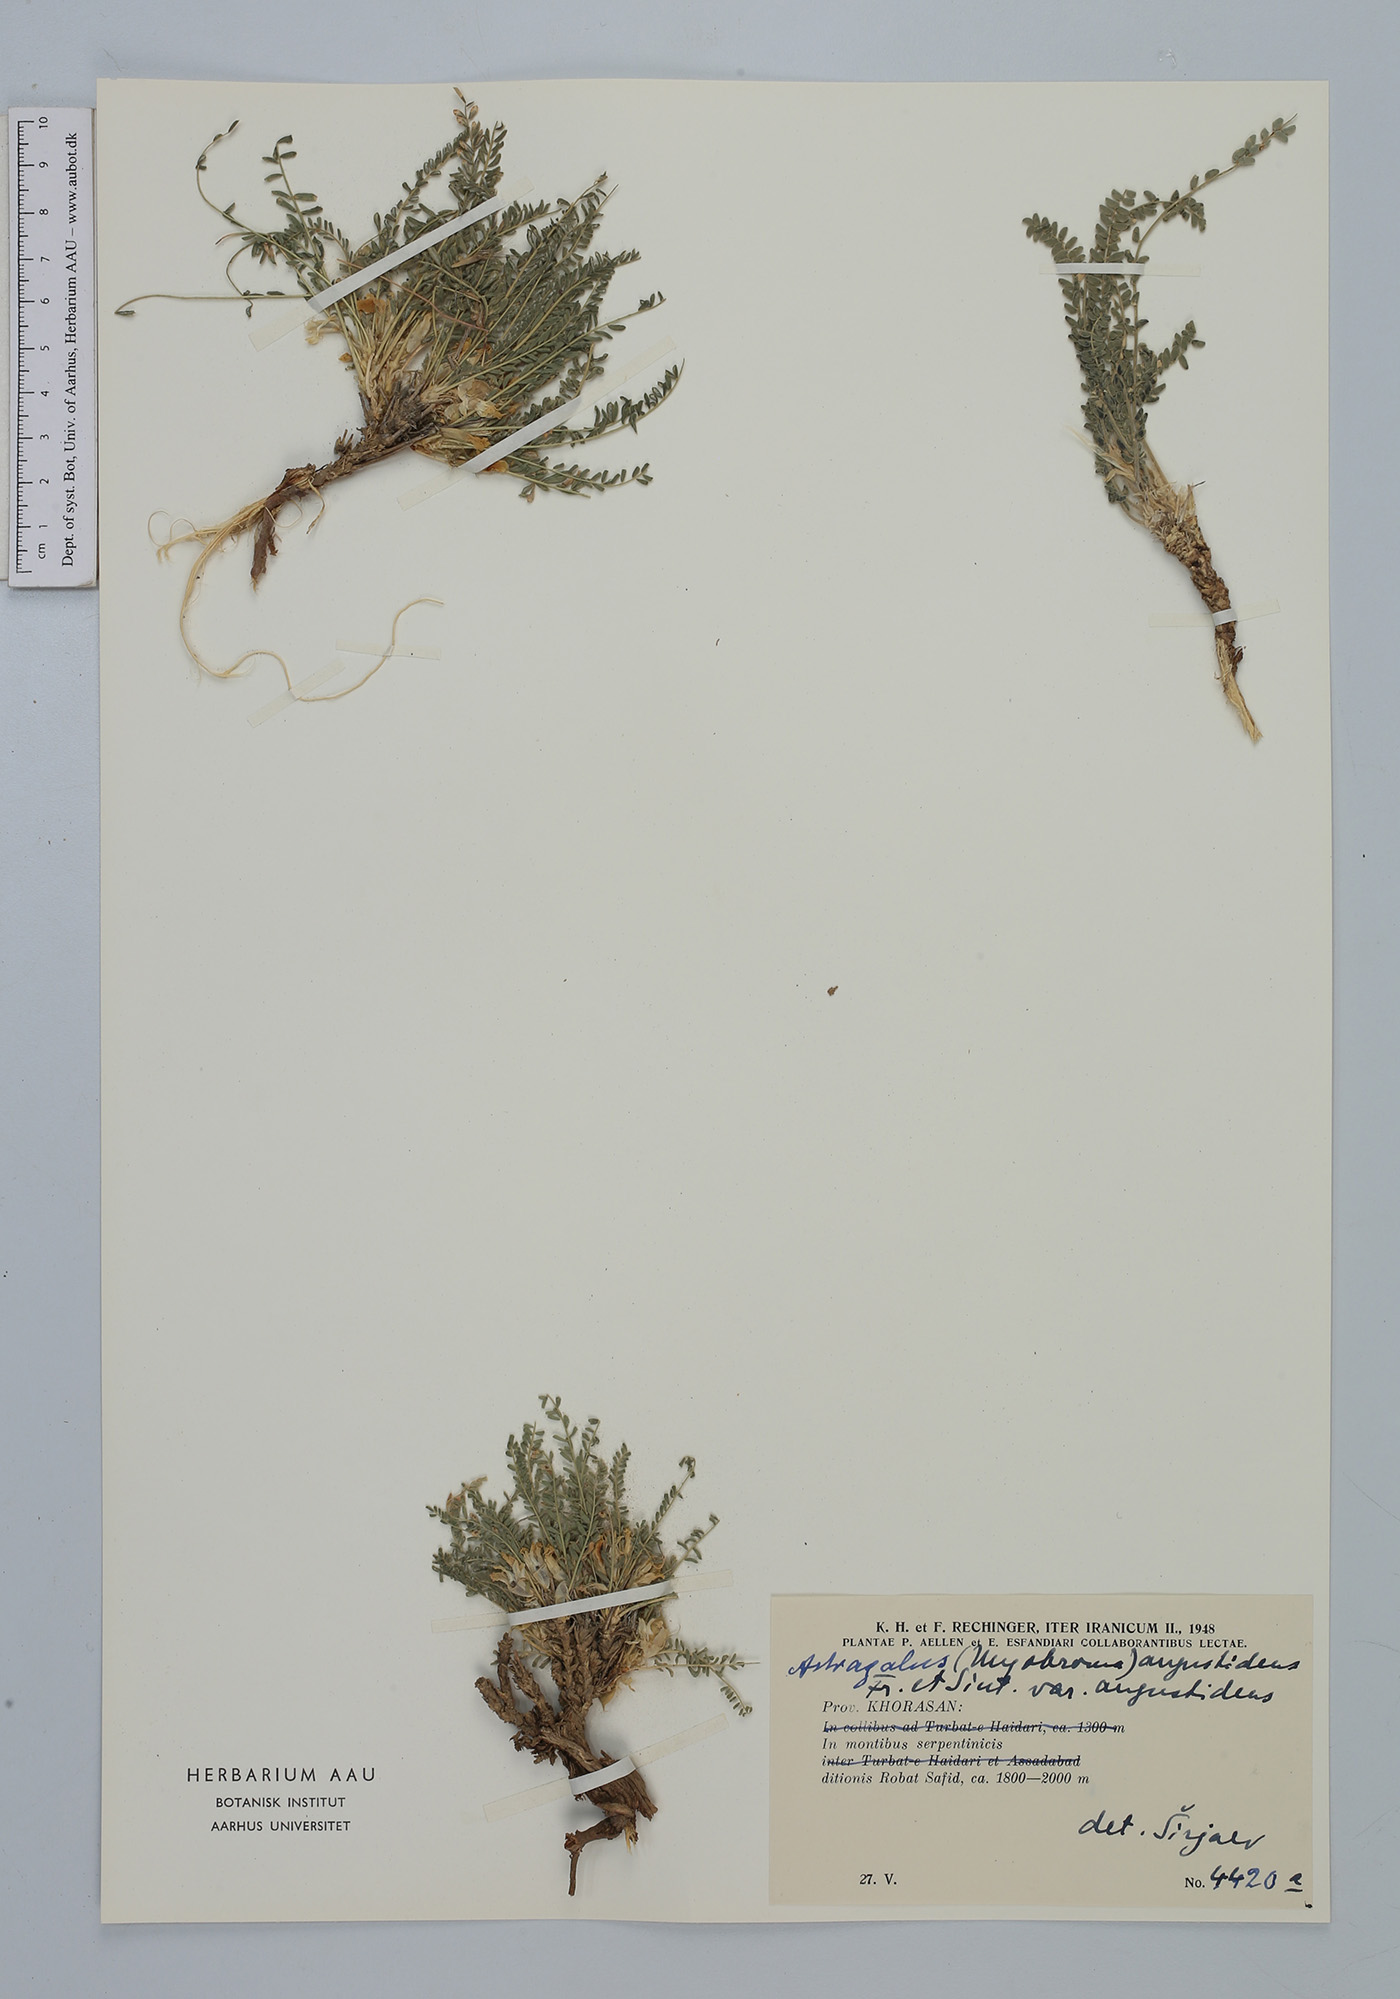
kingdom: Plantae
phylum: Tracheophyta
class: Magnoliopsida
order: Fabales
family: Fabaceae
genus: Astragalus
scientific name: Astragalus citrinus
